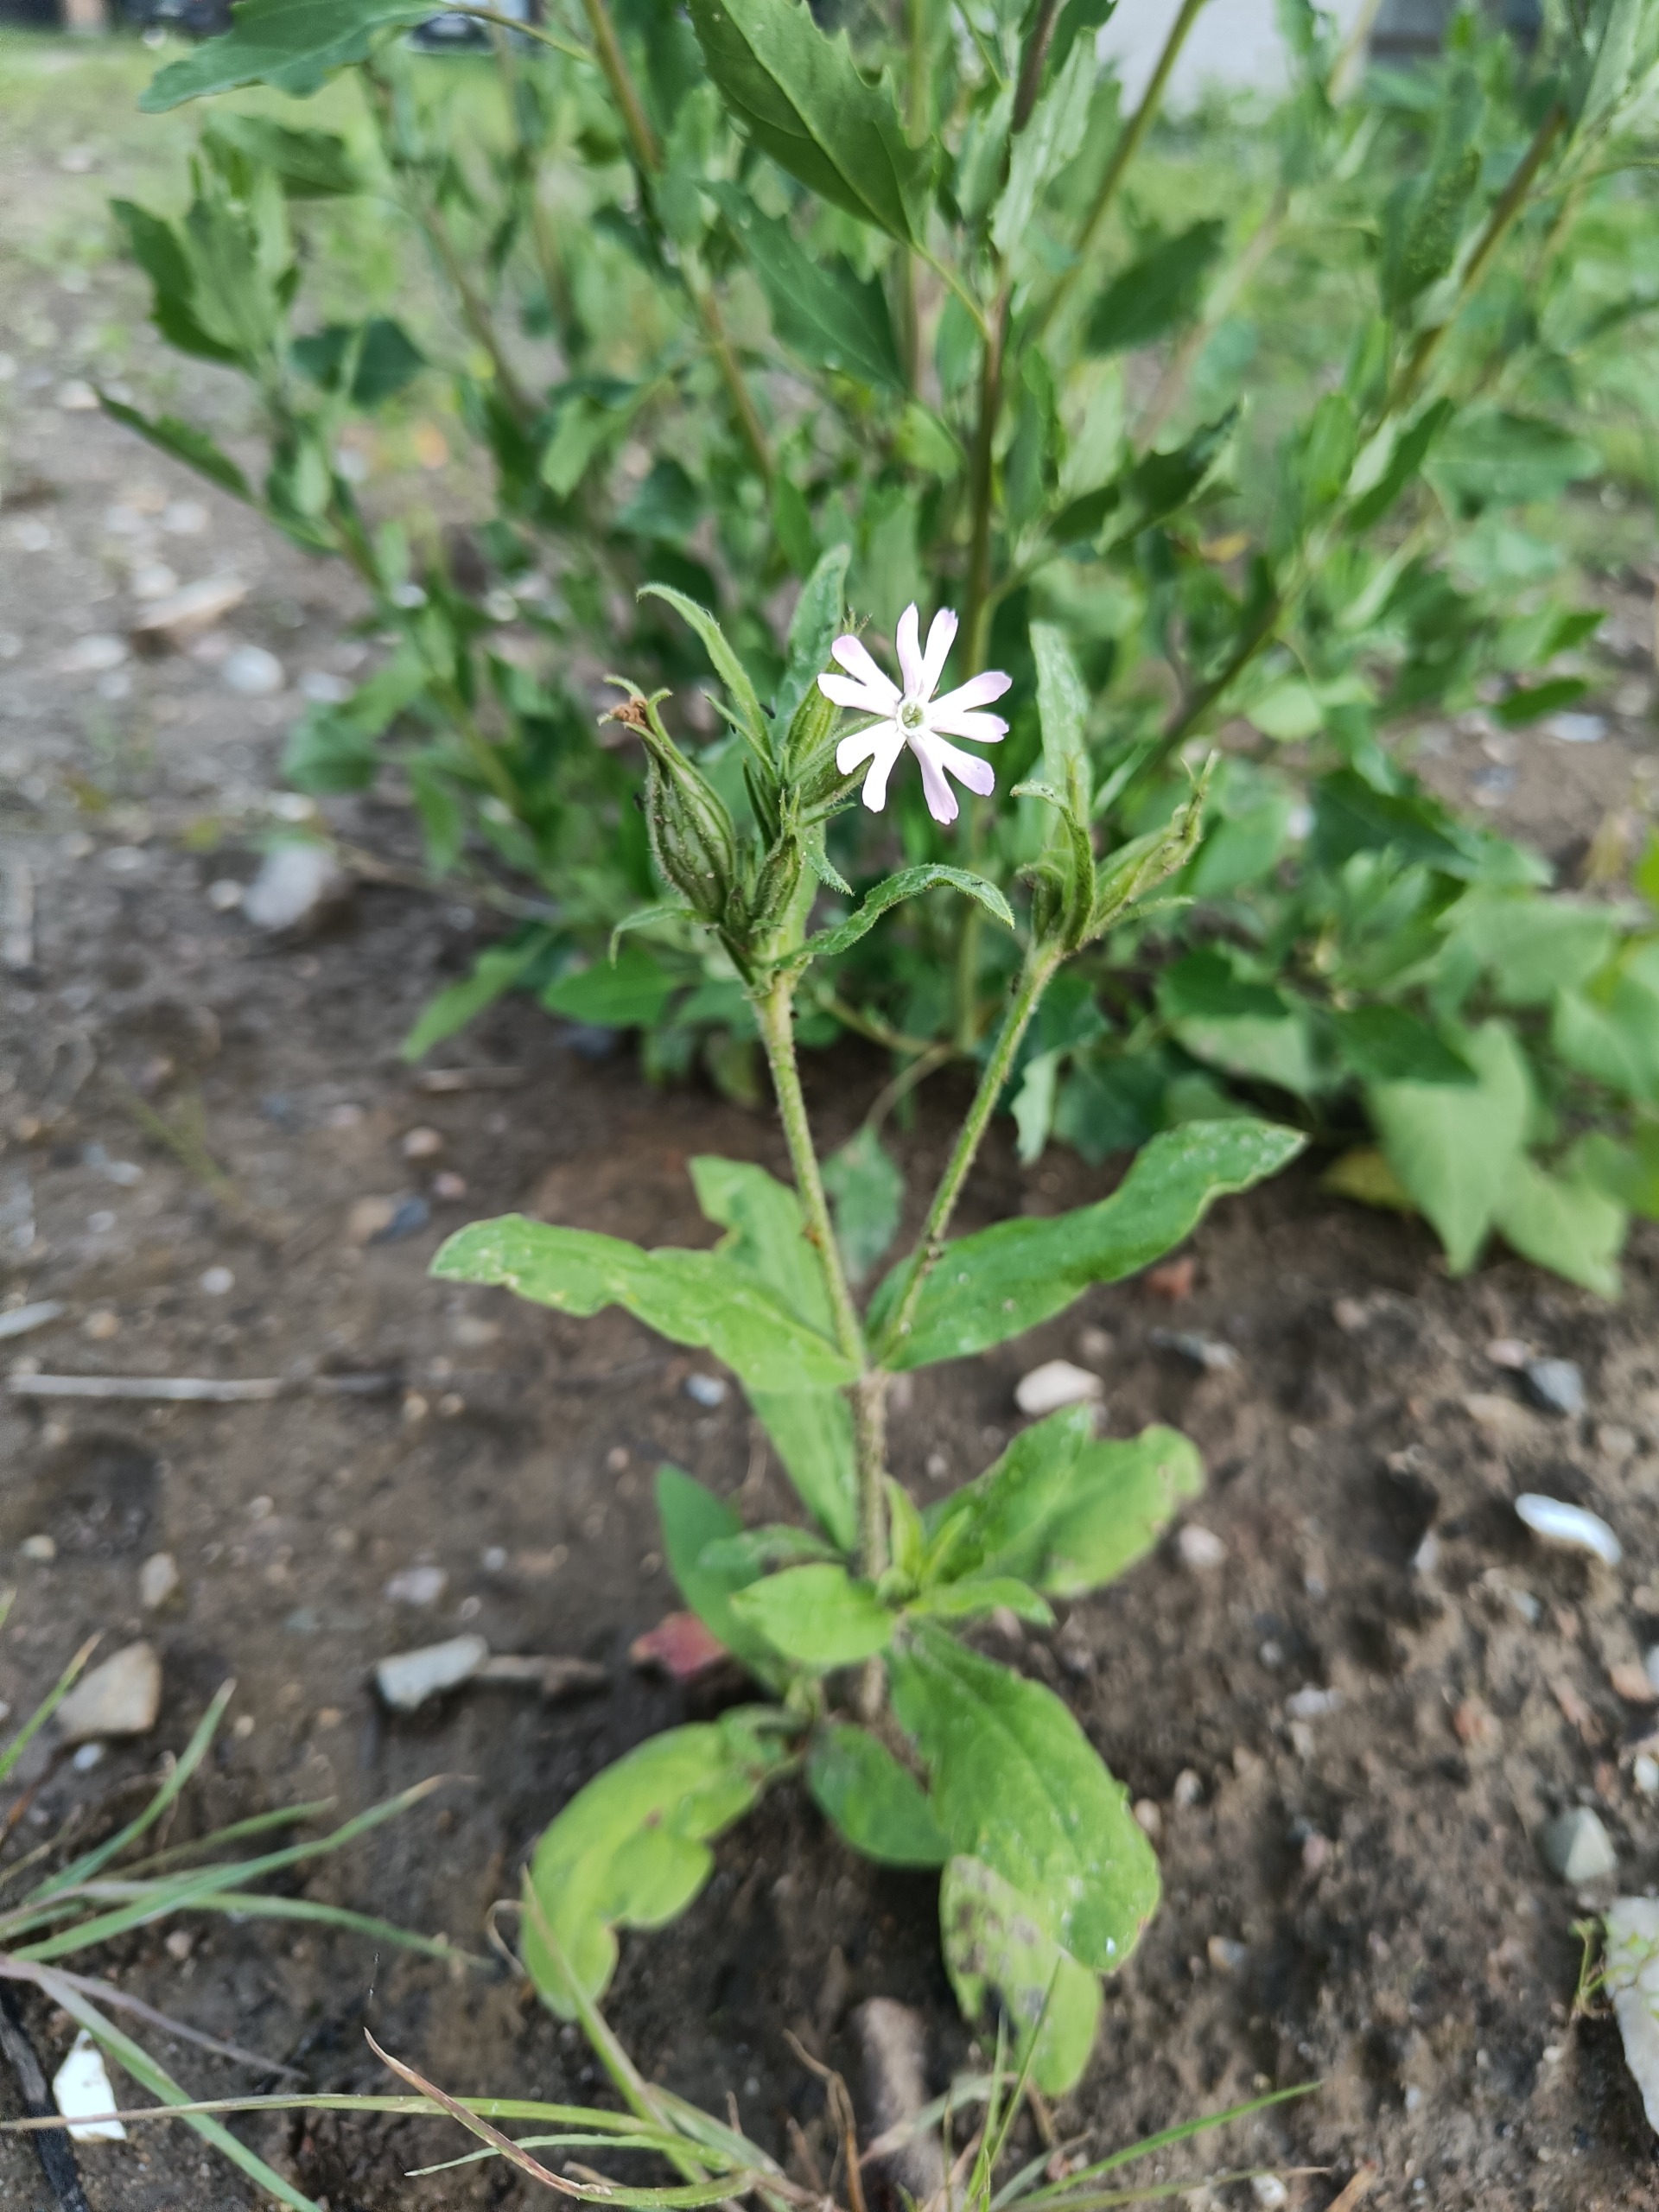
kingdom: Plantae
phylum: Tracheophyta
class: Magnoliopsida
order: Caryophyllales
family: Caryophyllaceae
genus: Silene
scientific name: Silene noctiflora
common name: Nat-limurt
